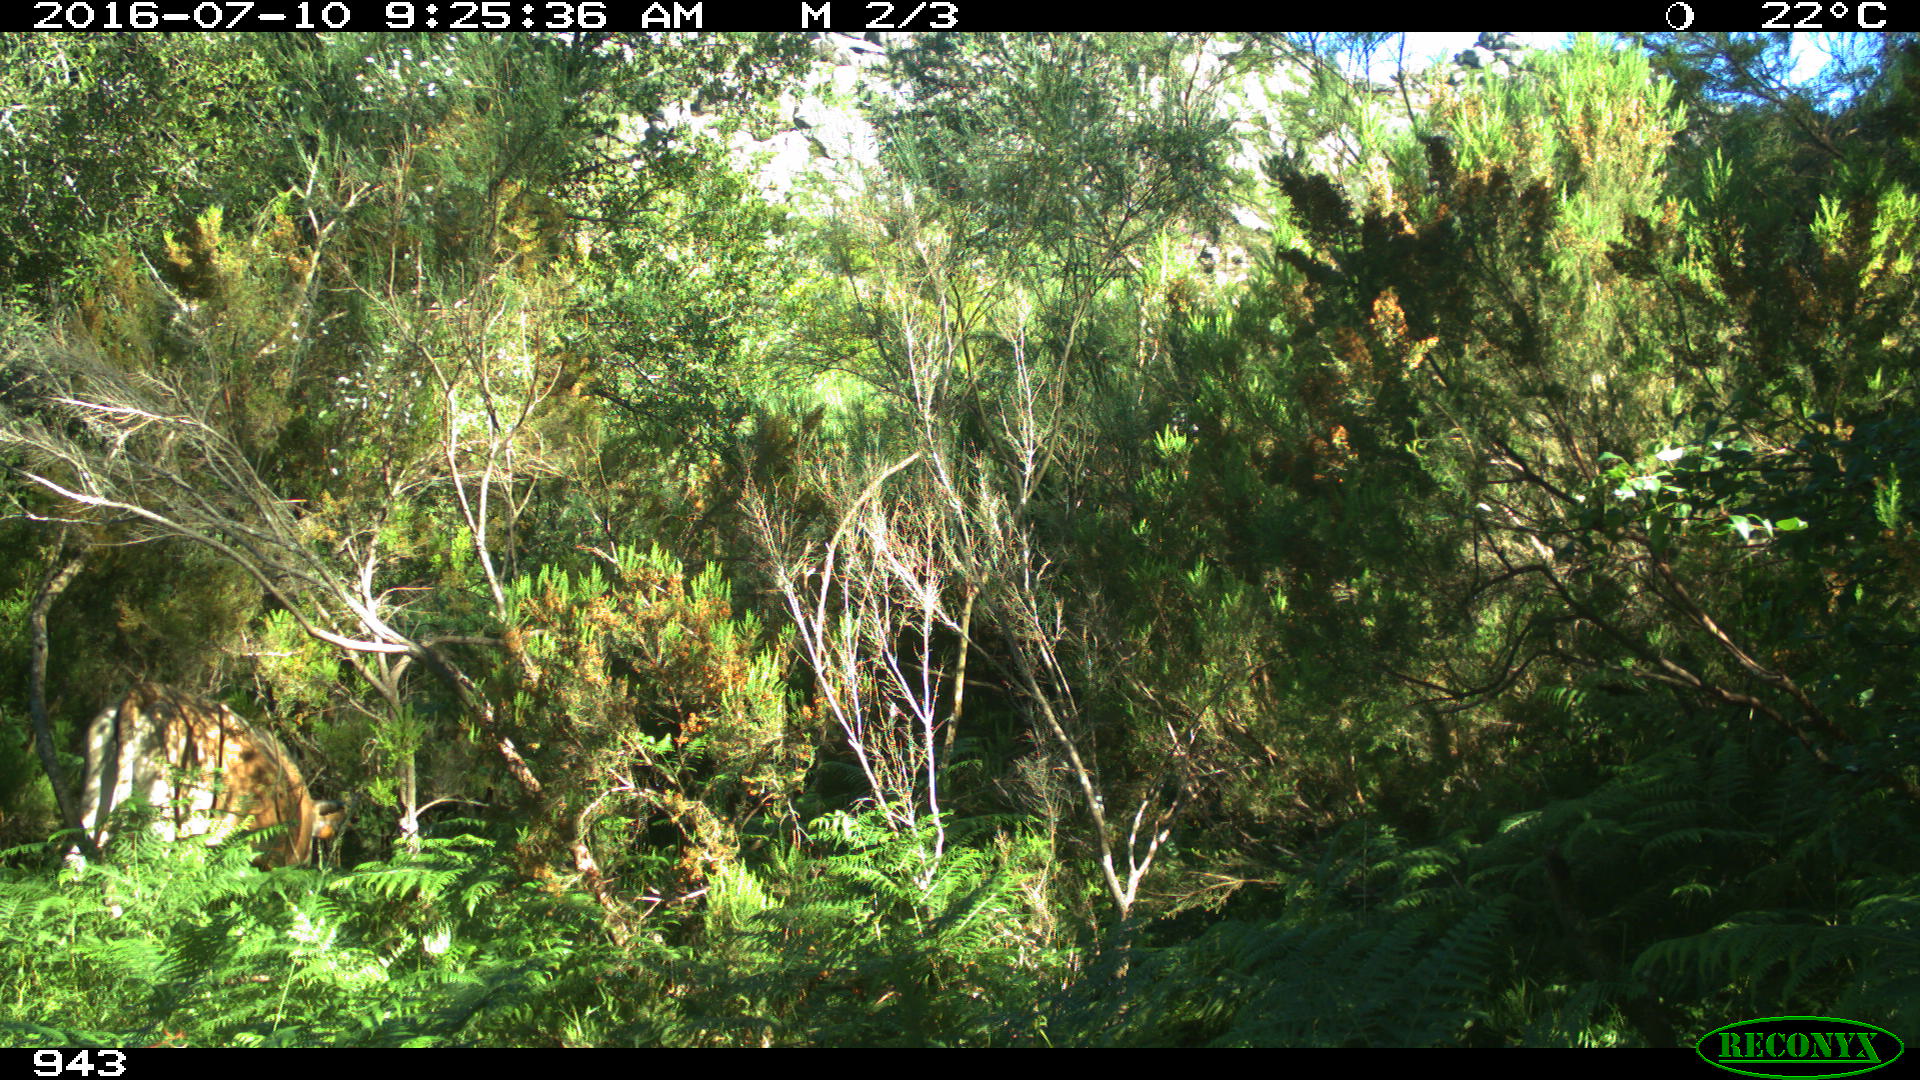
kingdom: Animalia
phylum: Chordata
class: Mammalia
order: Artiodactyla
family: Bovidae
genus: Bos
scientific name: Bos taurus
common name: Domesticated cattle
